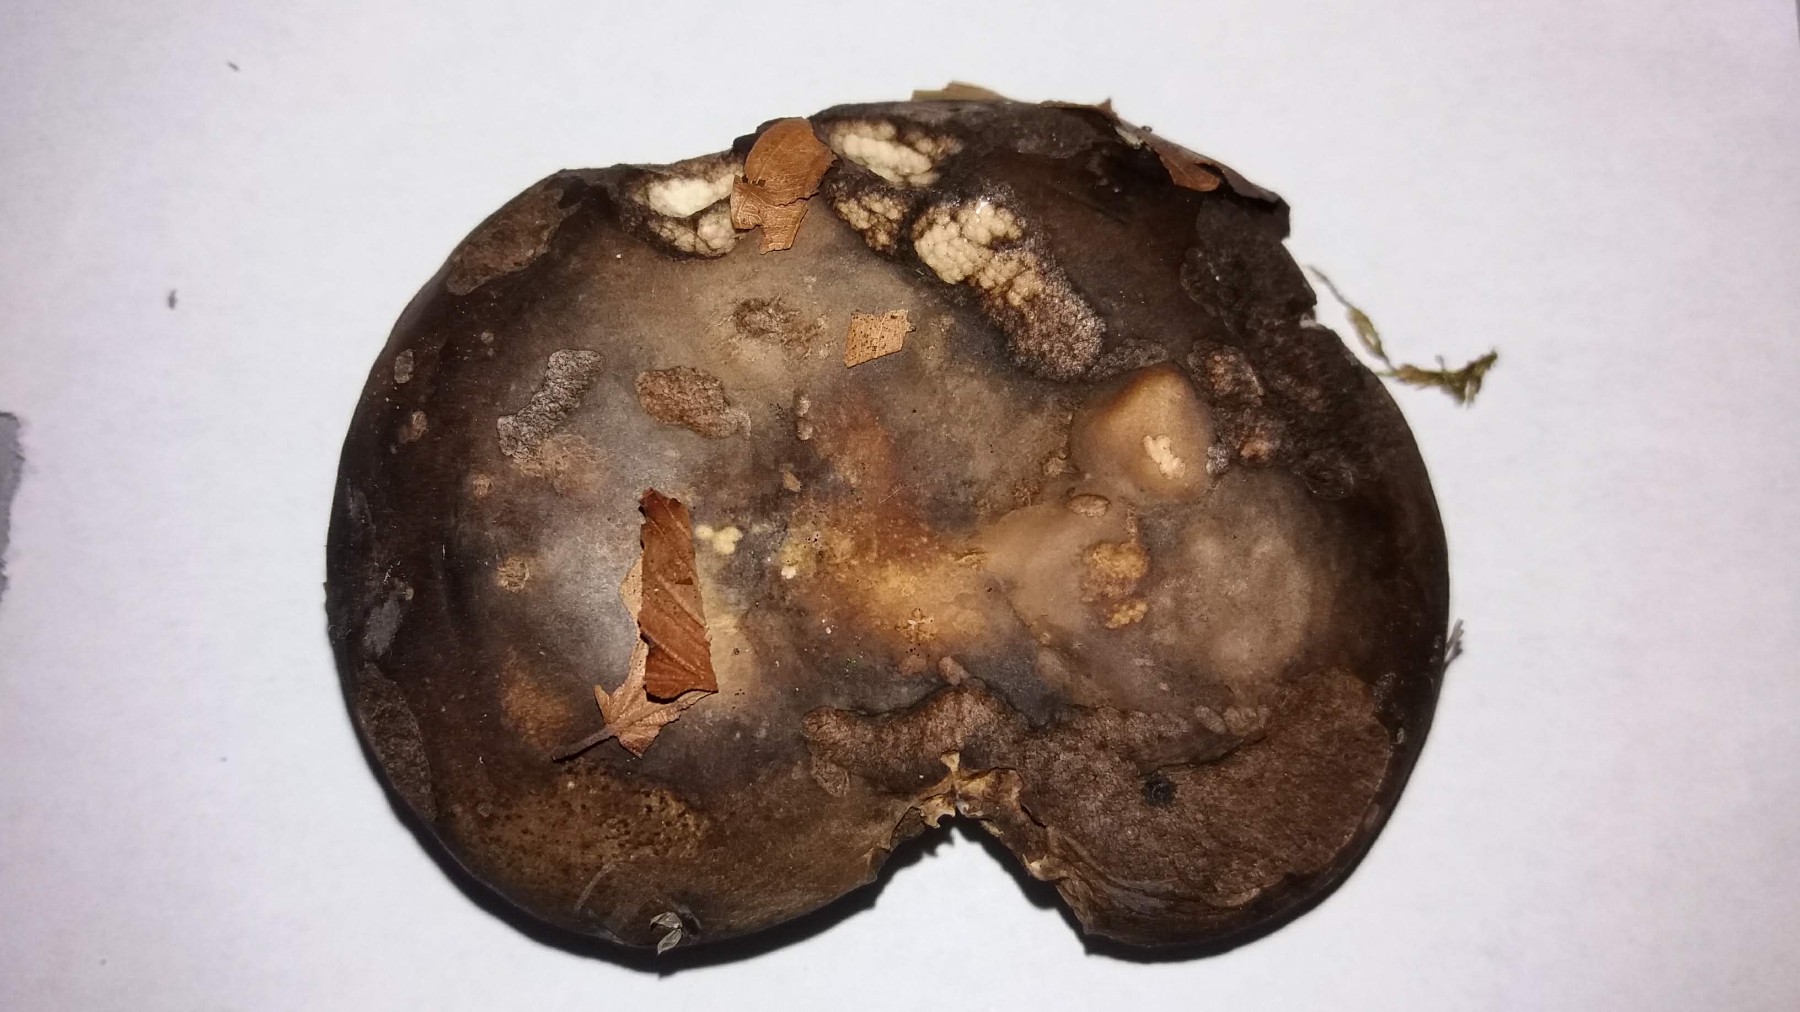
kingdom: Fungi
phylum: Basidiomycota
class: Agaricomycetes
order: Russulales
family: Russulaceae
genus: Russula
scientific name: Russula adusta
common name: sværtende skørhat
